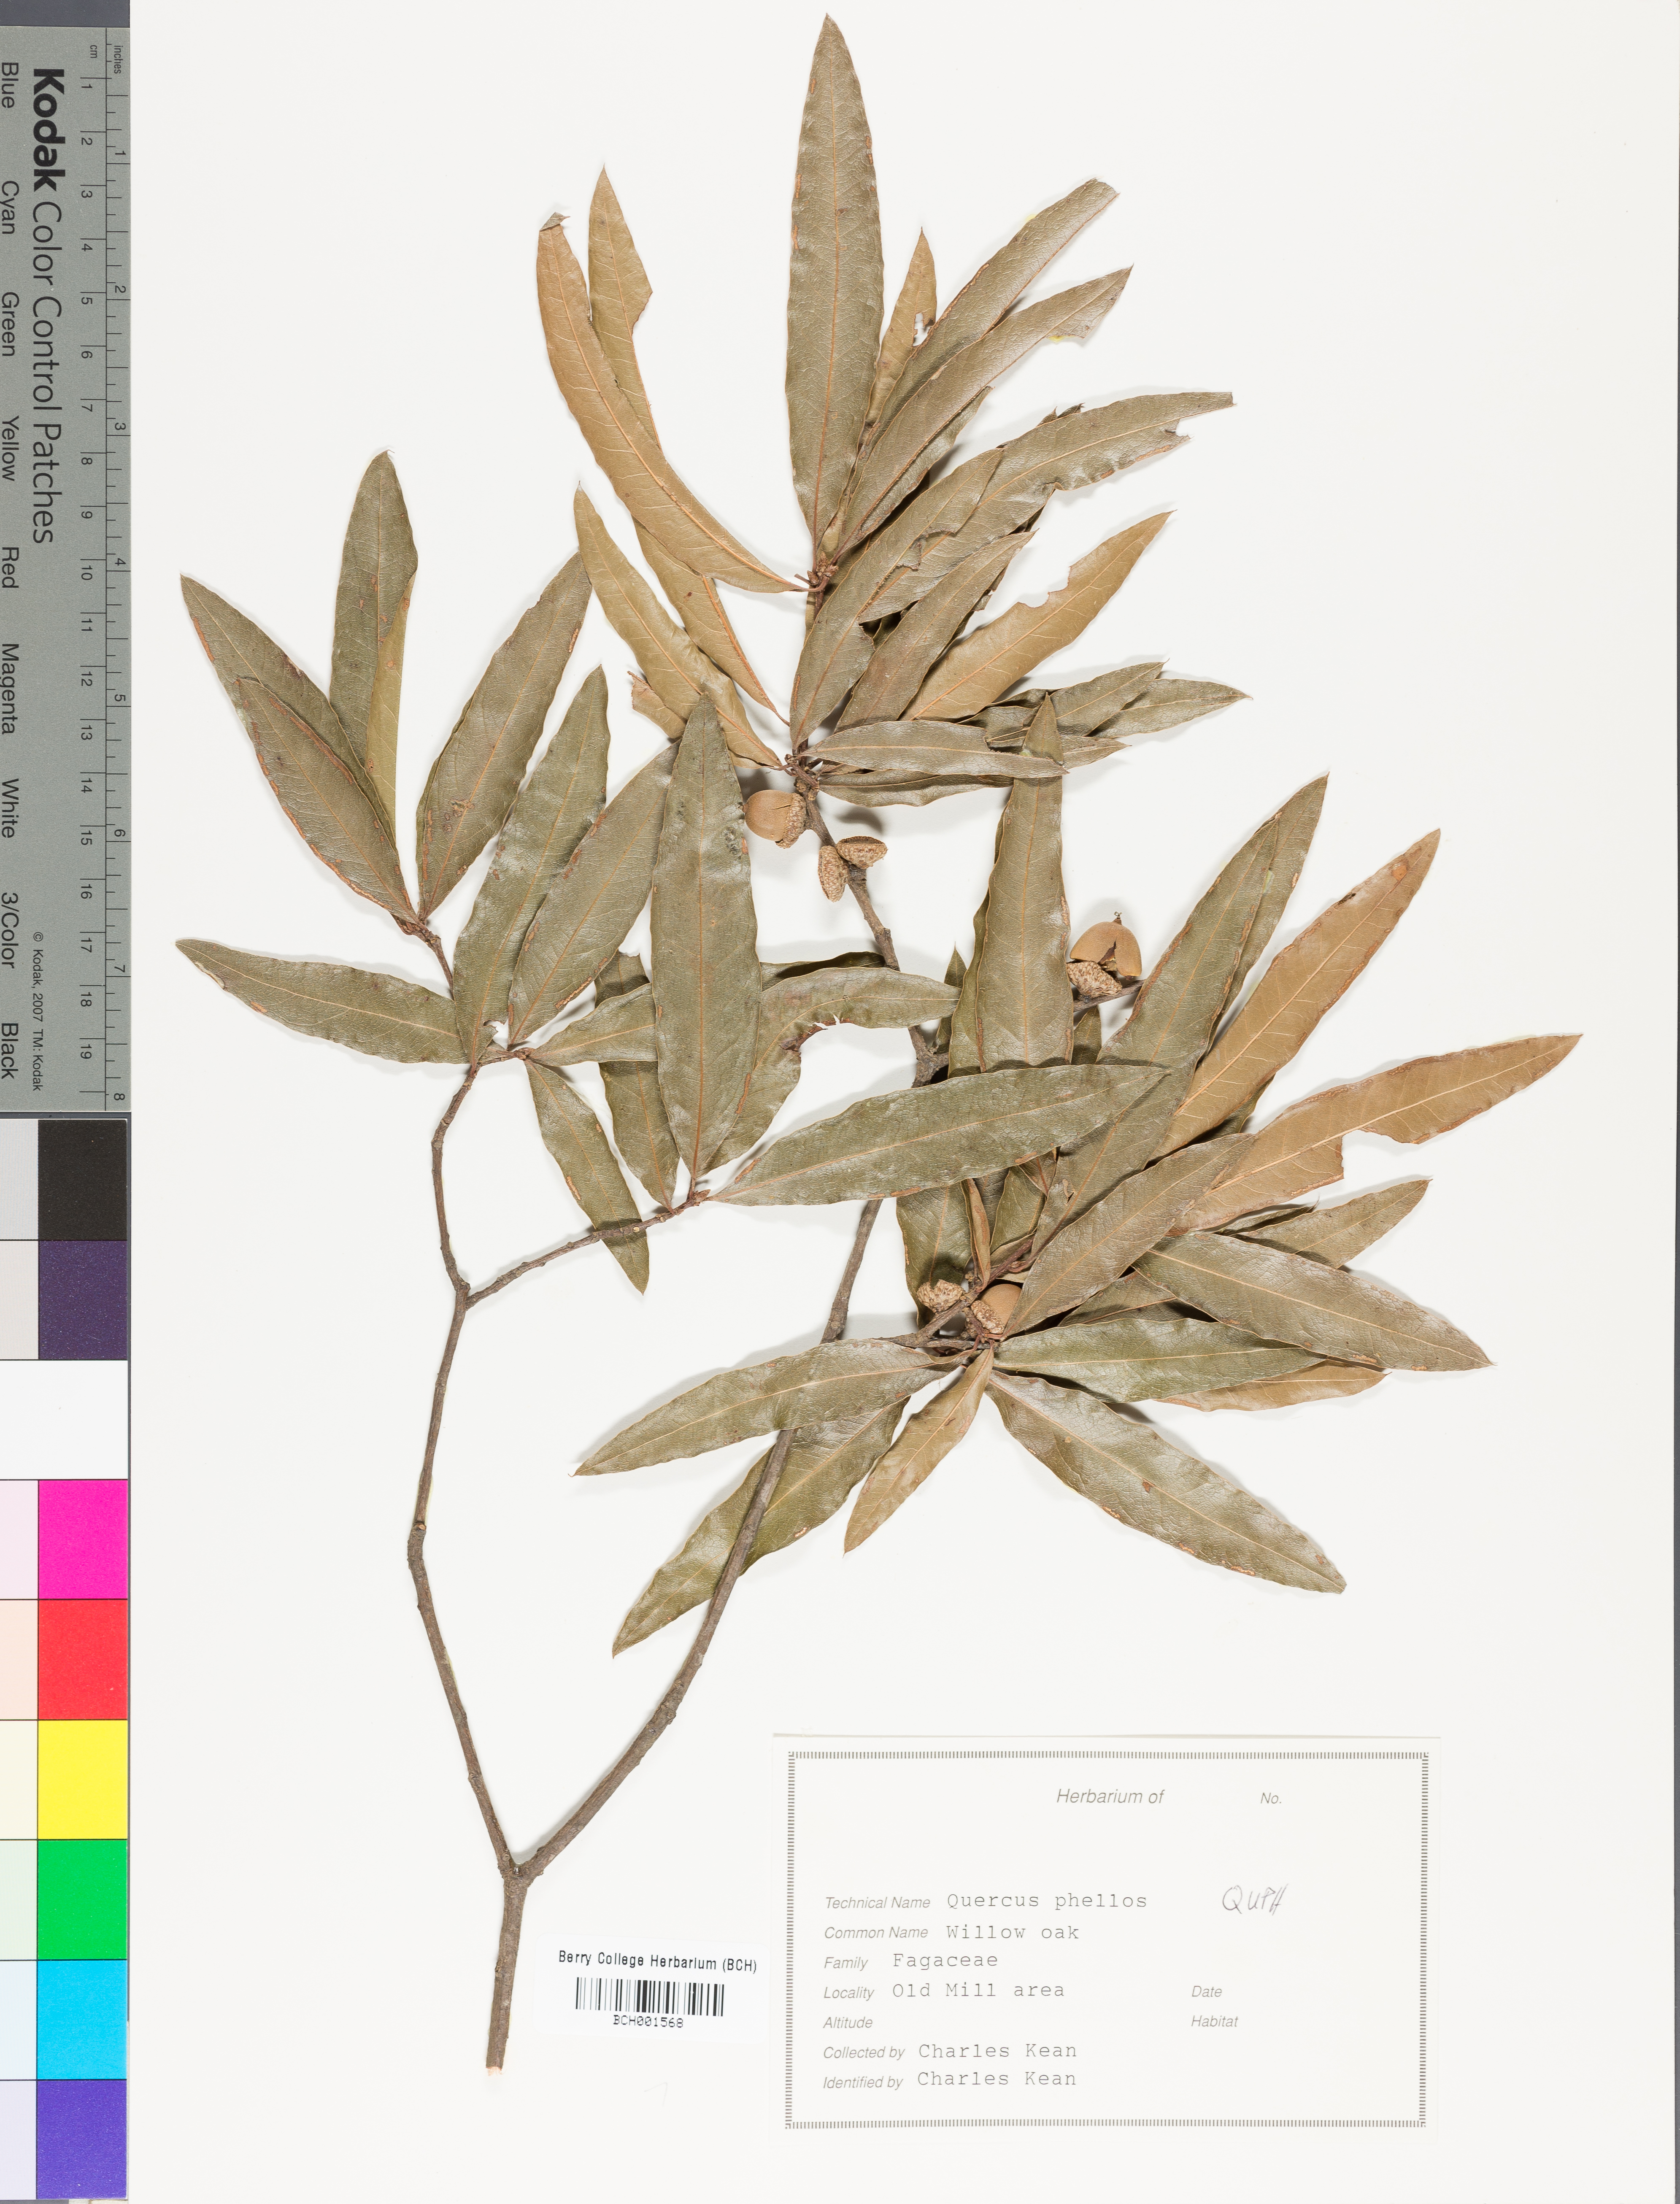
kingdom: Plantae
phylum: Tracheophyta
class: Magnoliopsida
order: Fagales
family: Fagaceae
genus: Quercus
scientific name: Quercus phellos
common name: Willow oak
